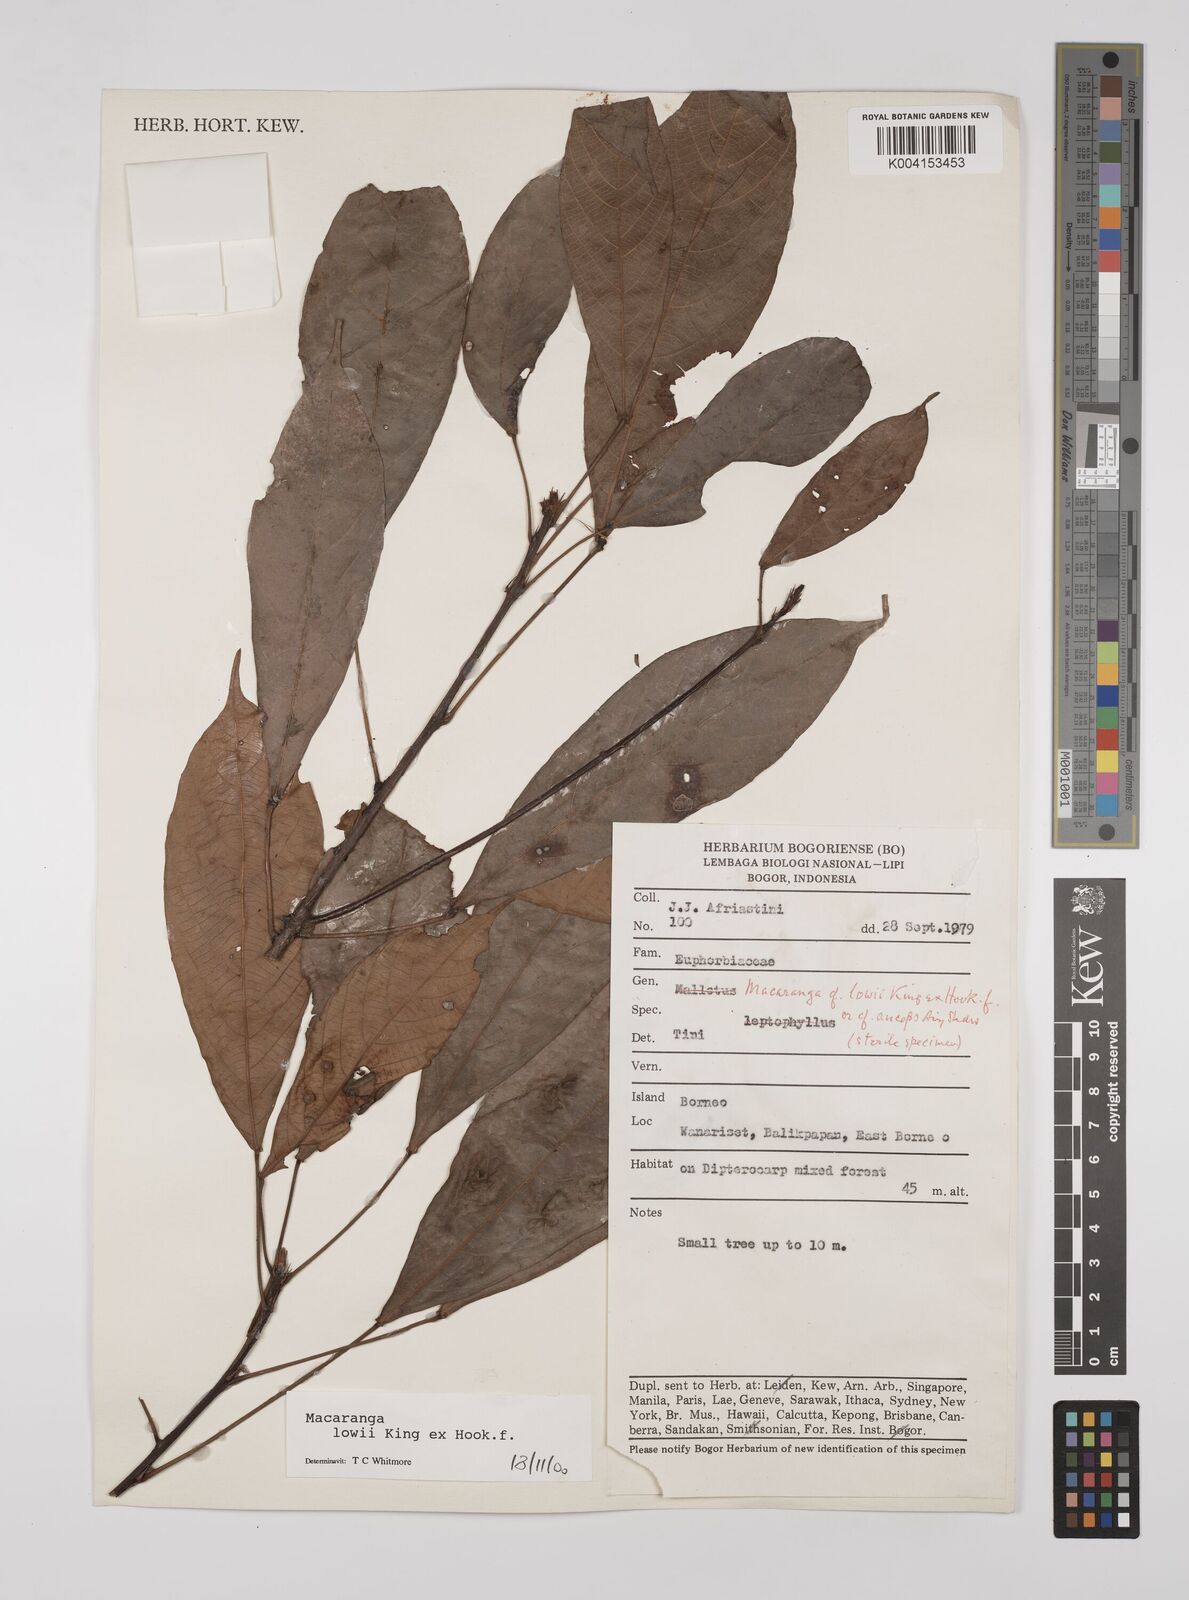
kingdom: Plantae
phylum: Tracheophyta
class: Magnoliopsida
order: Malpighiales
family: Euphorbiaceae
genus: Macaranga
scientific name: Macaranga lowii
